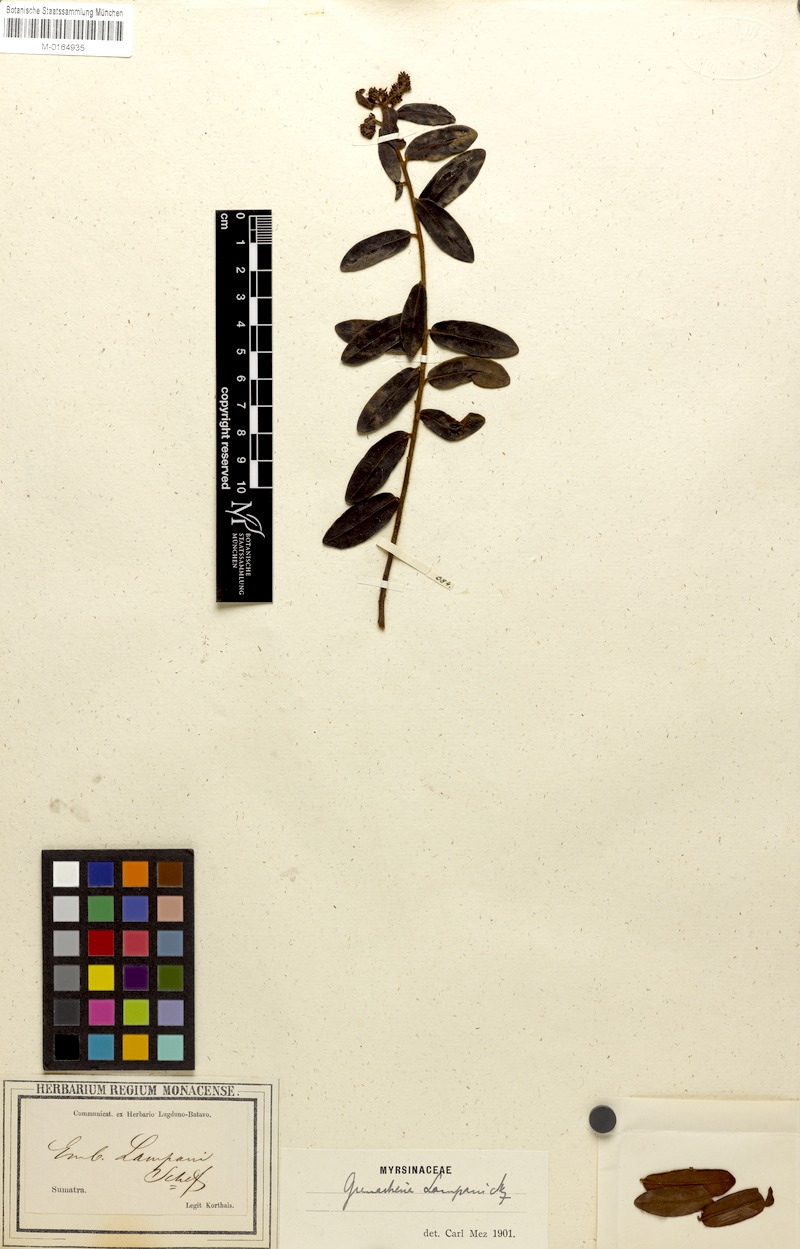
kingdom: Plantae
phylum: Tracheophyta
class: Magnoliopsida
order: Ericales
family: Primulaceae
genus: Grenacheria
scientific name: Grenacheria lampani
